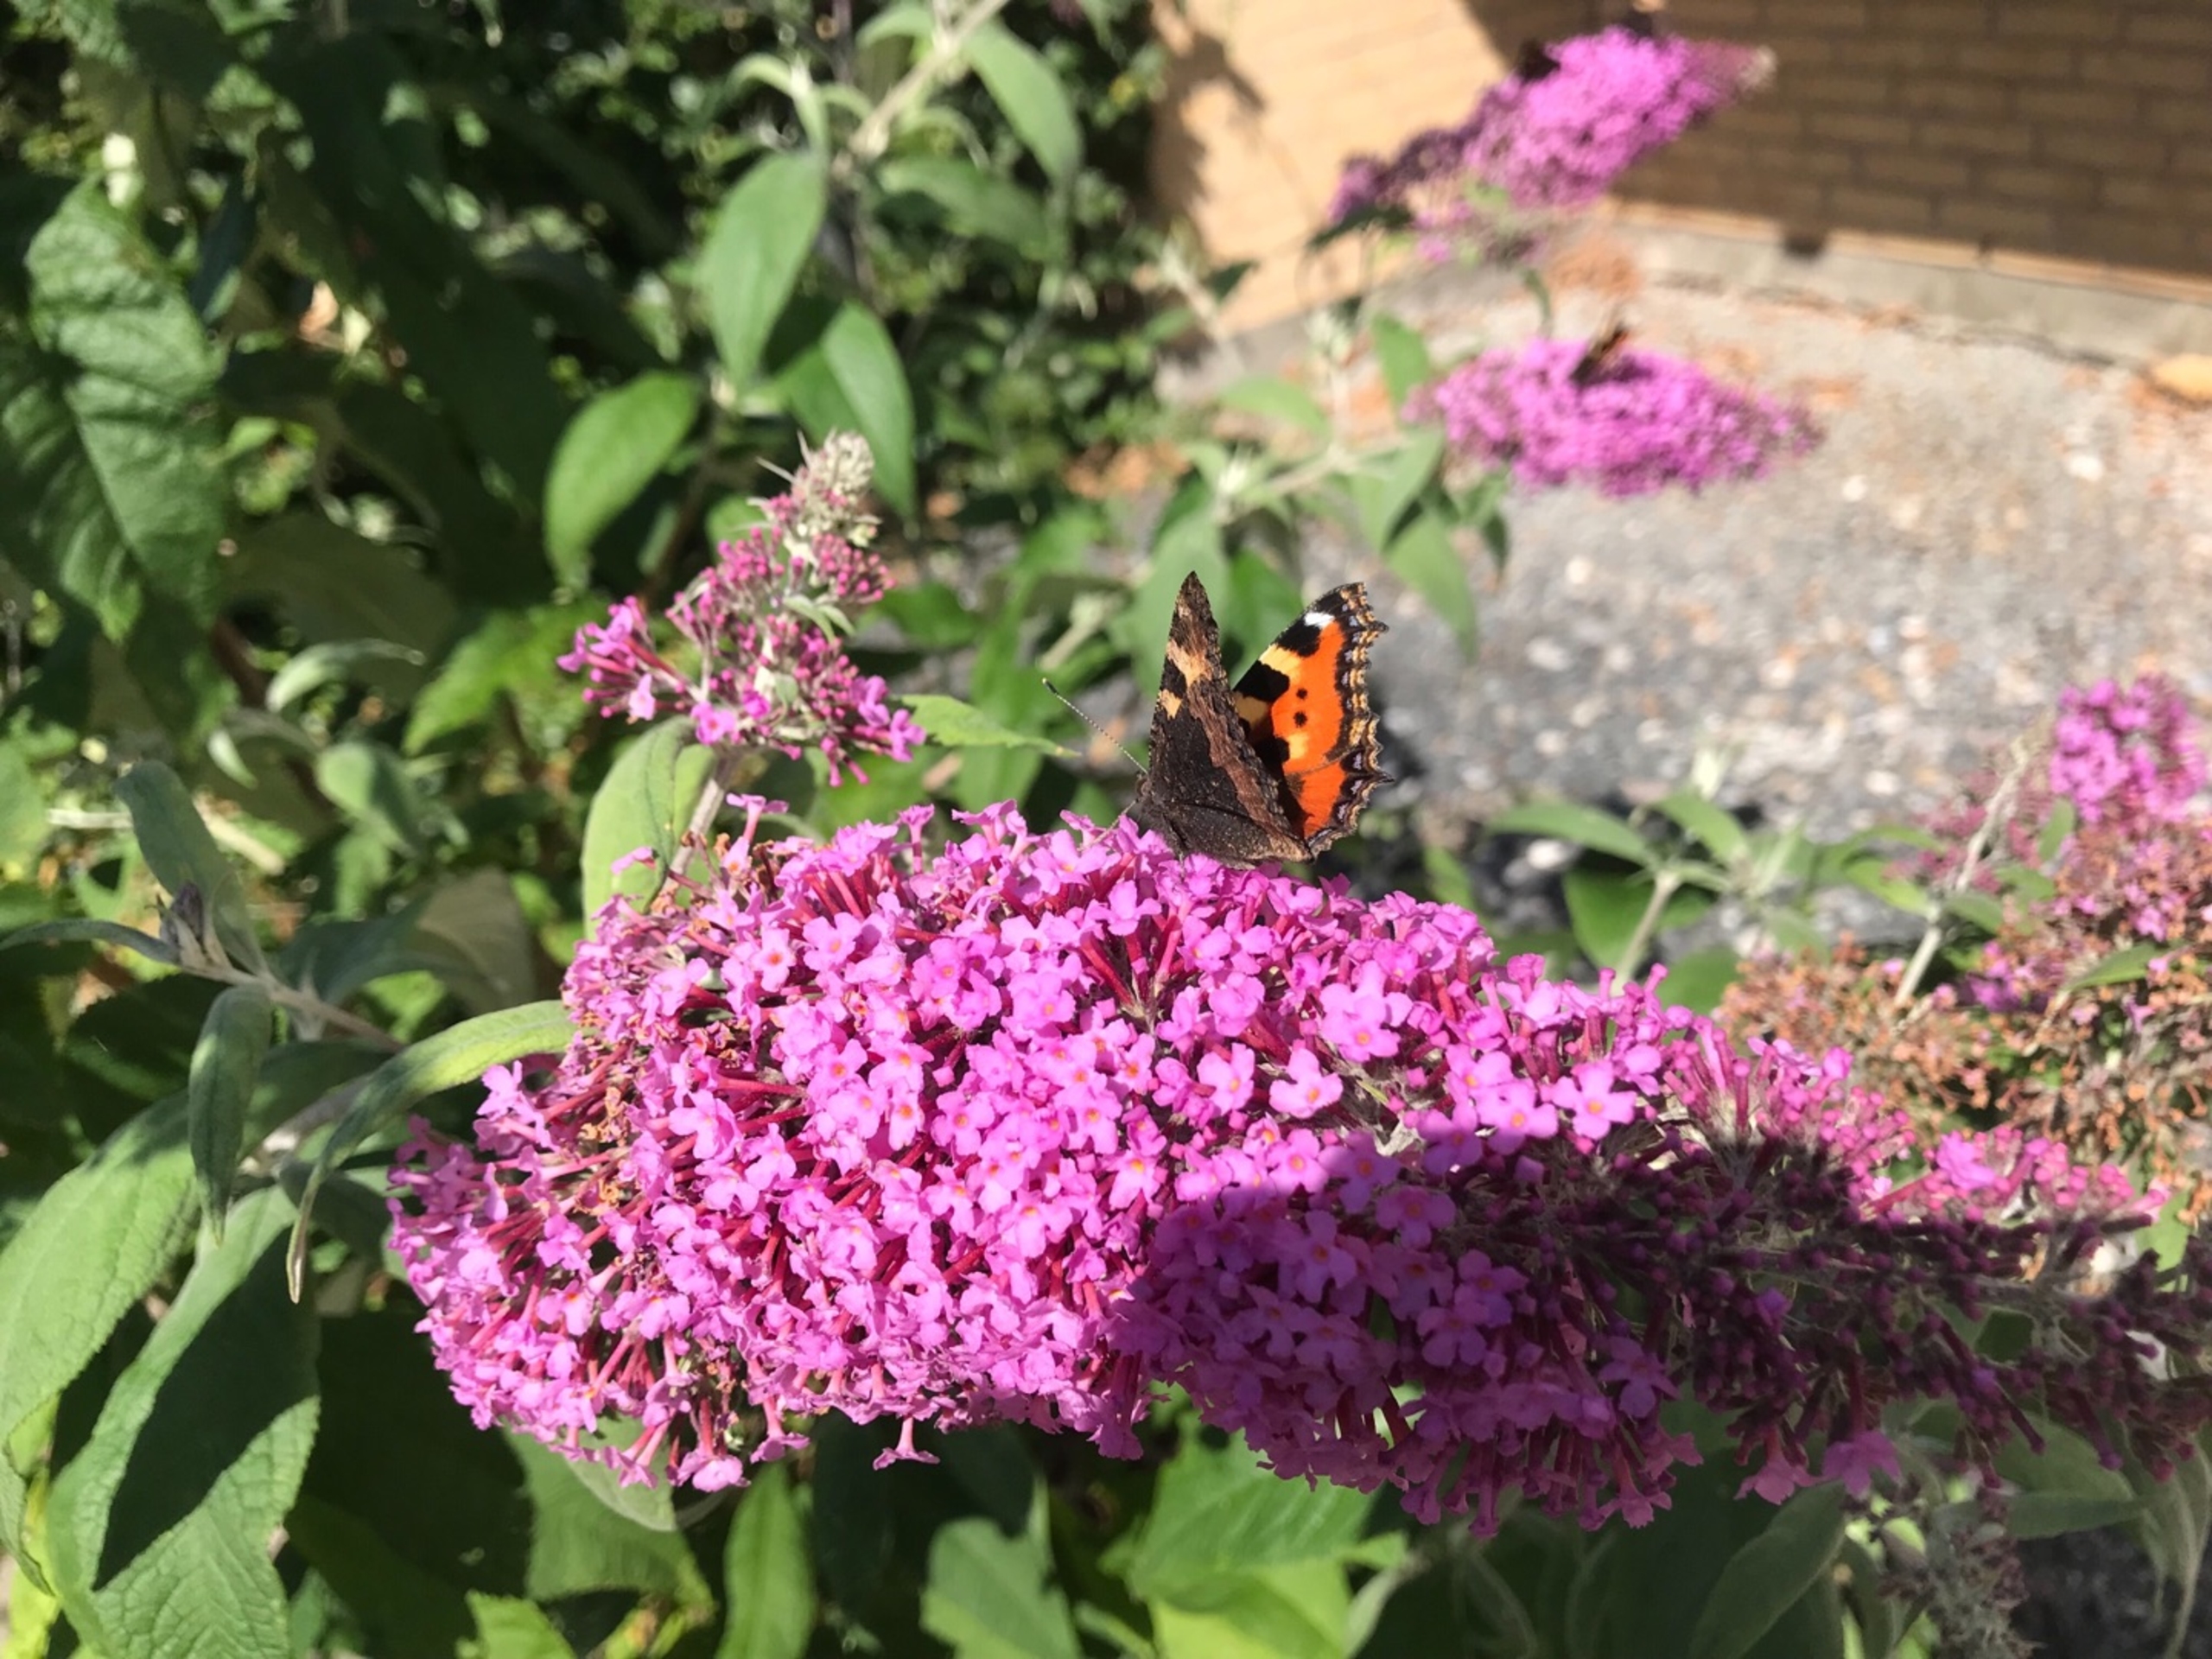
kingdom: Animalia
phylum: Arthropoda
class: Insecta
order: Lepidoptera
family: Nymphalidae
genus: Aglais
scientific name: Aglais urticae
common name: Nældens takvinge
